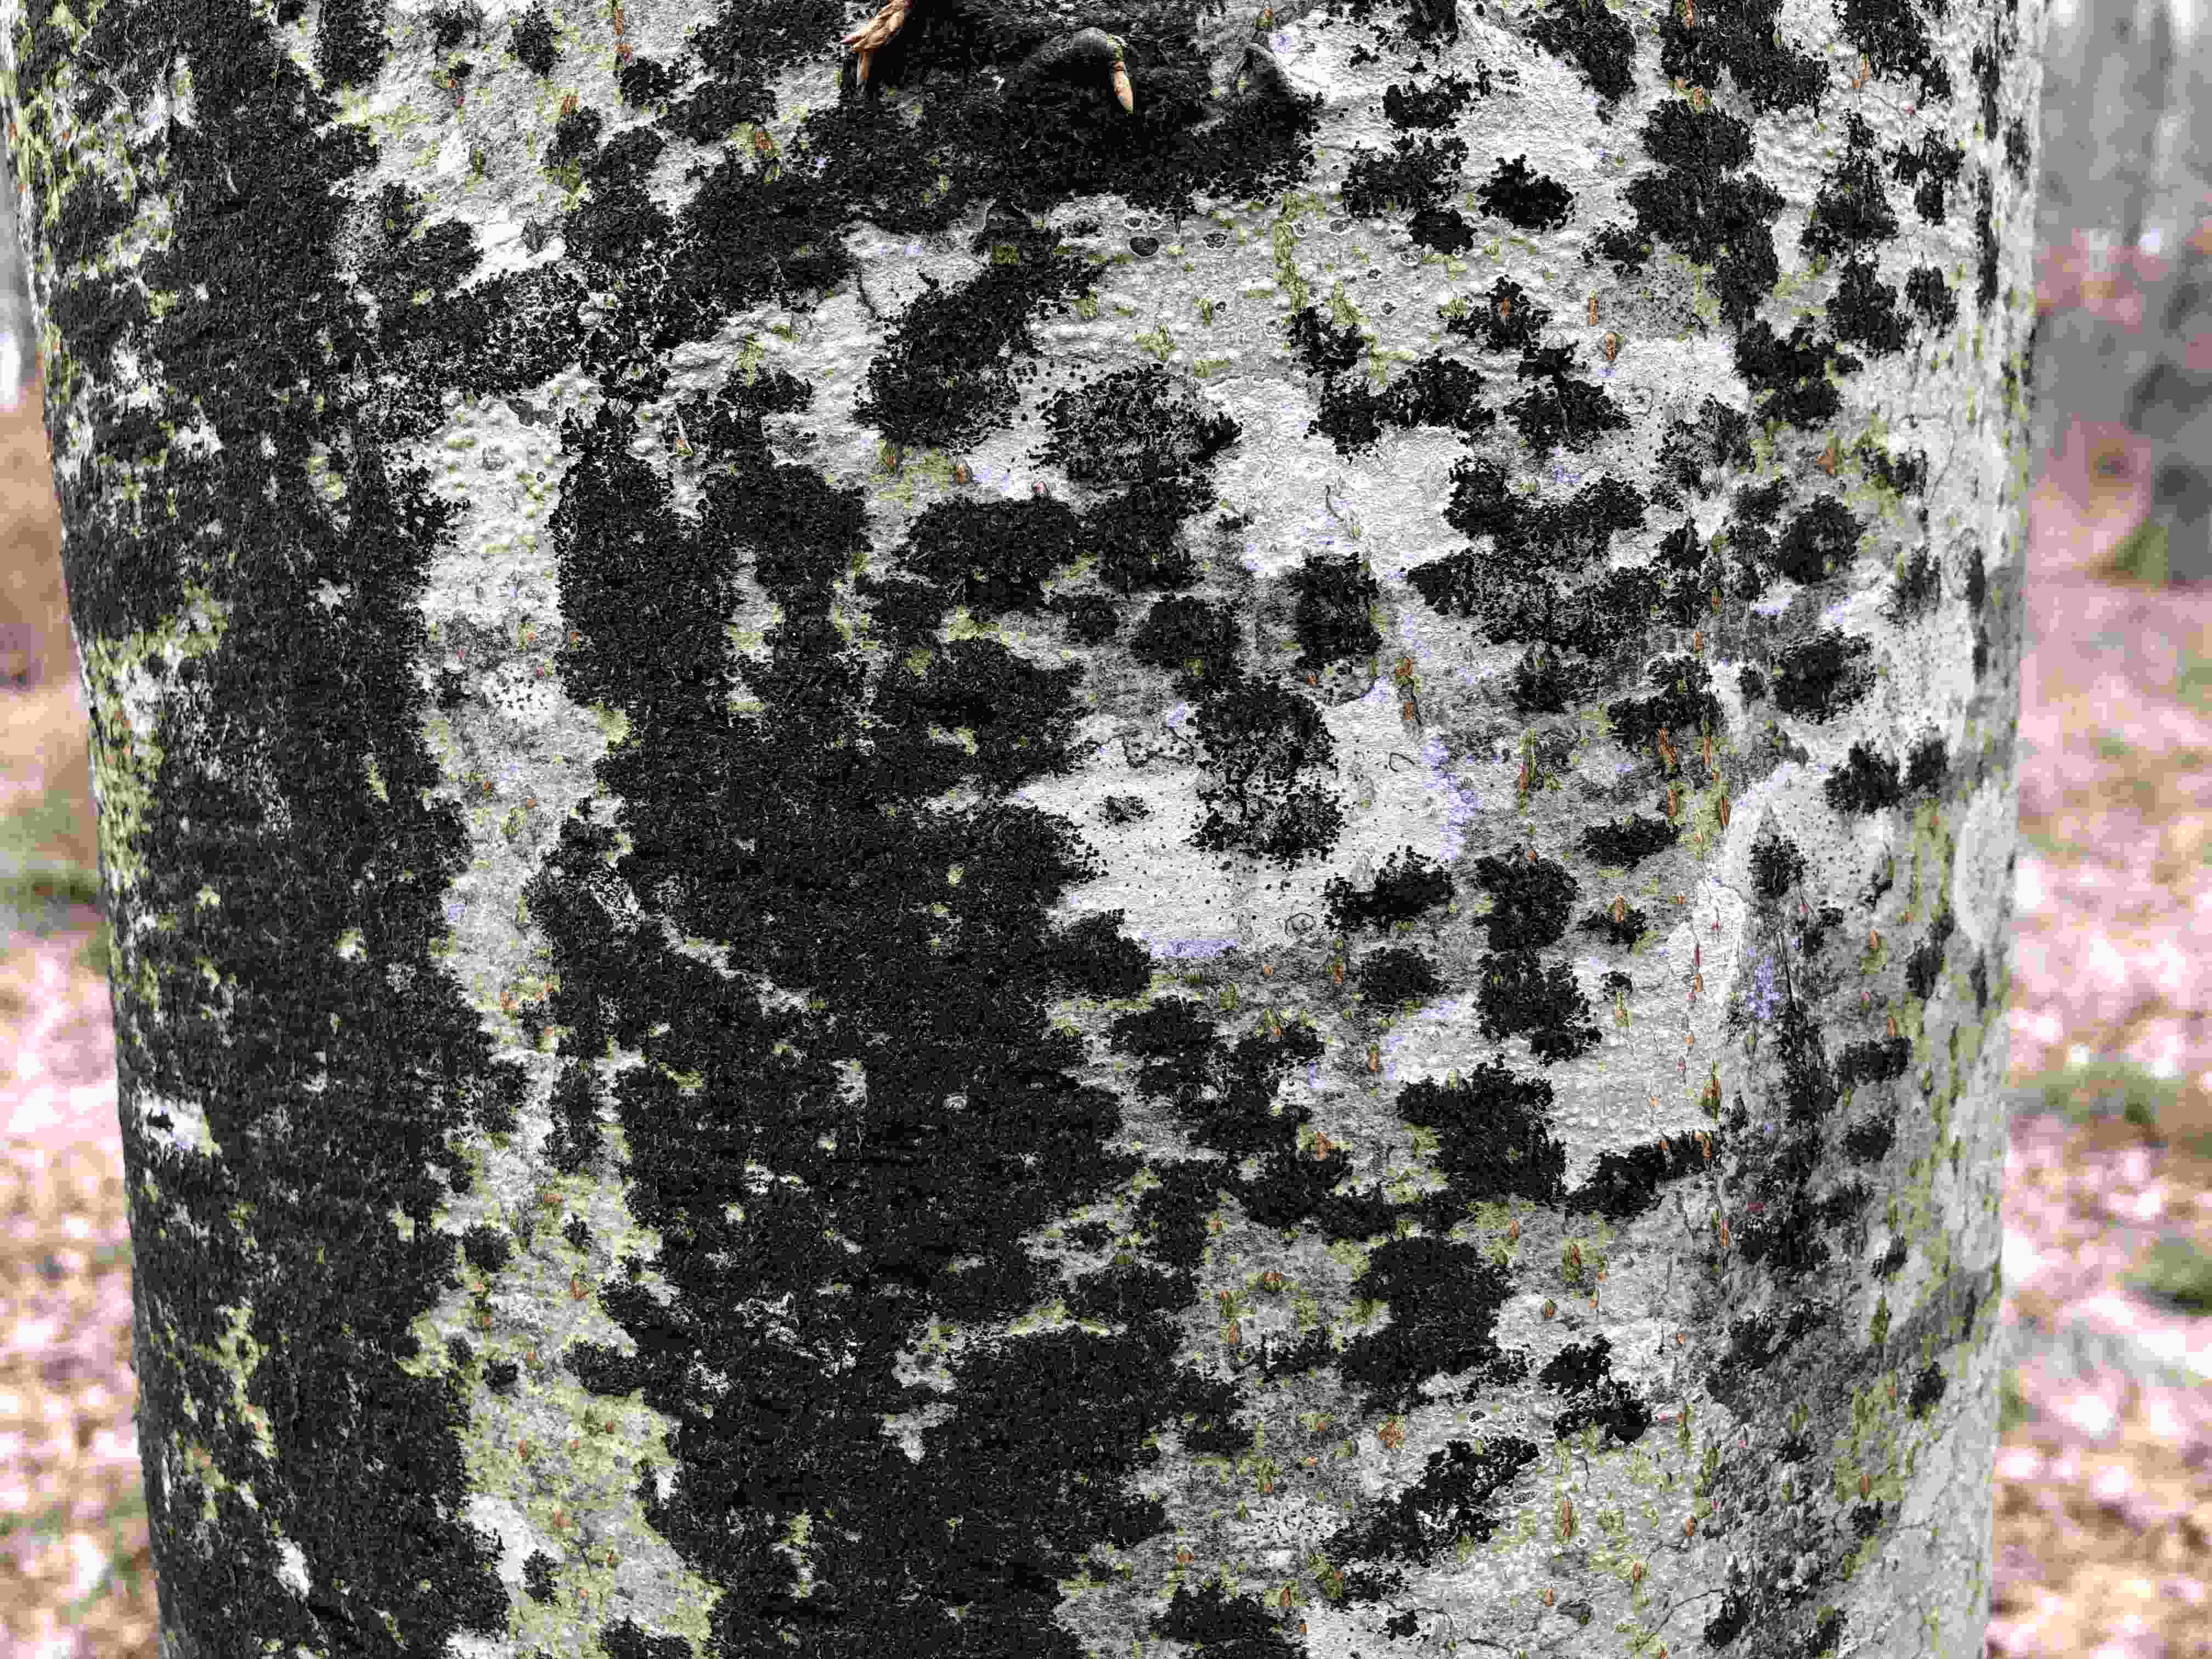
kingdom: Fungi
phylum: Ascomycota
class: Leotiomycetes
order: Rhytismatales
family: Ascodichaenaceae
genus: Ascodichaena
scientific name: Ascodichaena rugosa
